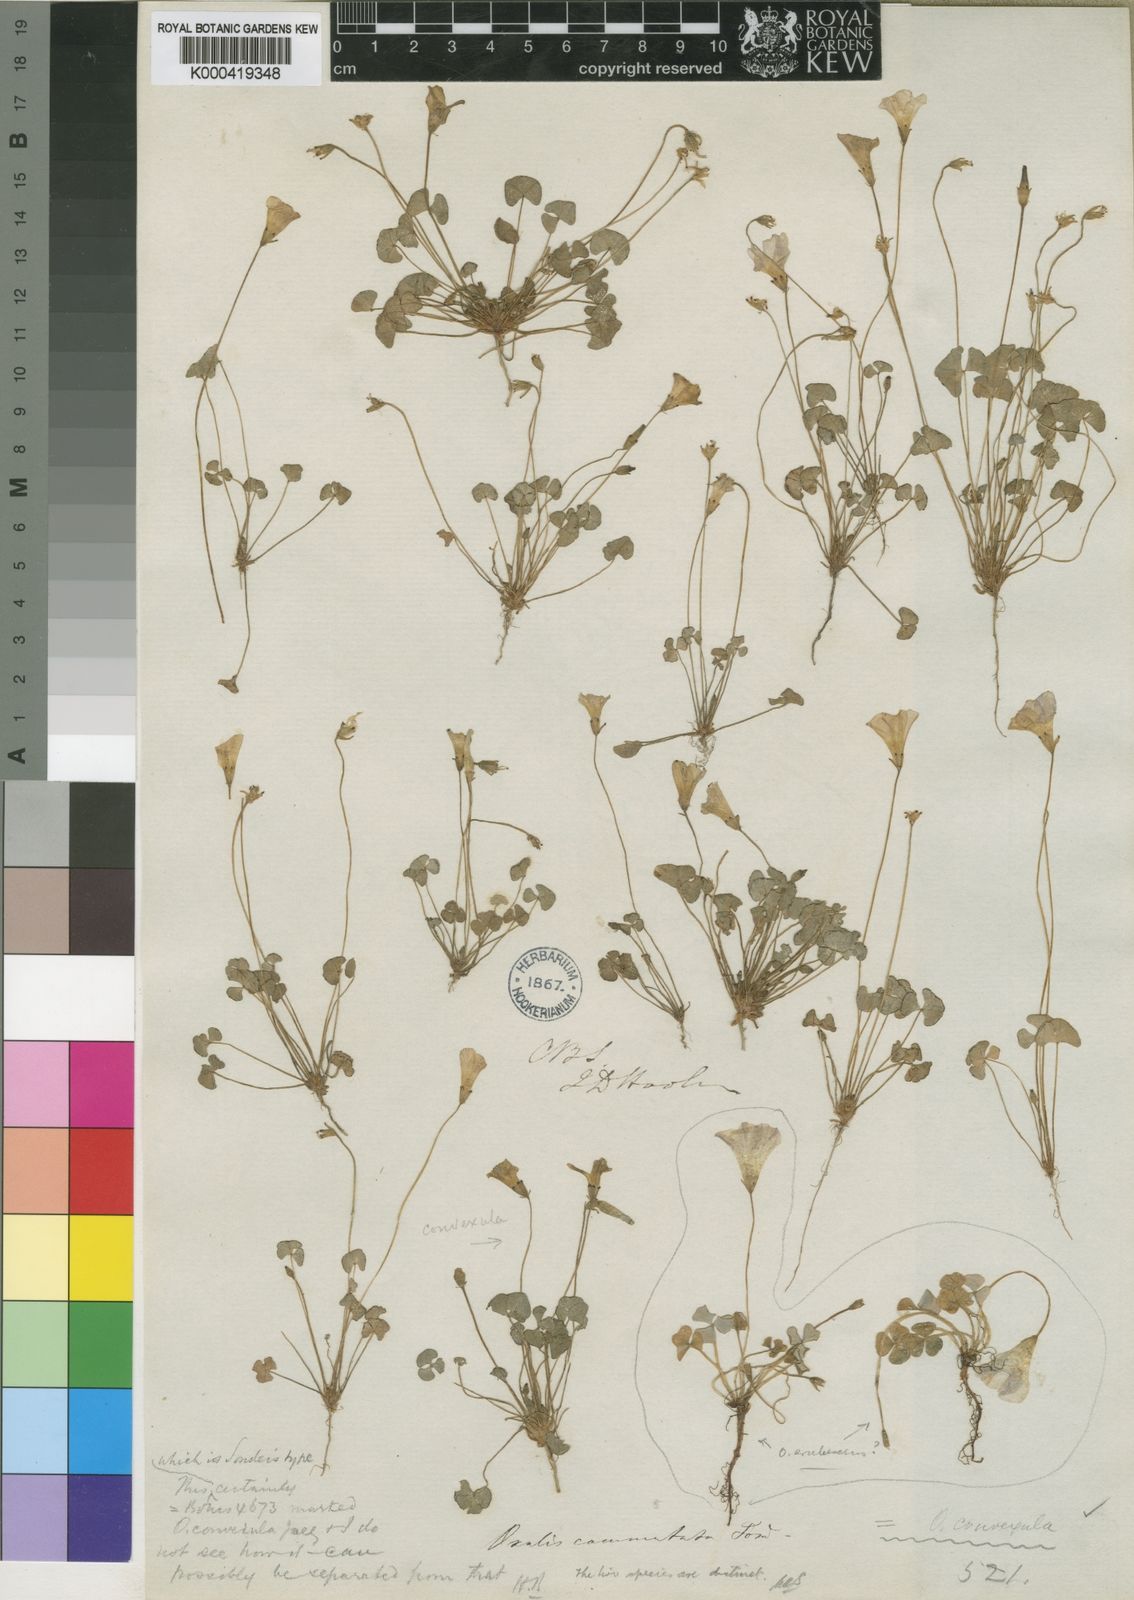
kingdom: Plantae
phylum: Tracheophyta
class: Magnoliopsida
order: Oxalidales
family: Oxalidaceae
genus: Oxalis
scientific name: Oxalis commutata
